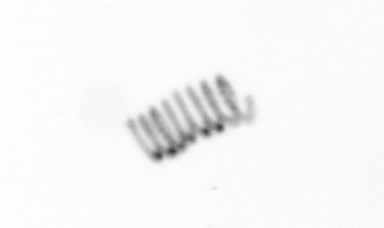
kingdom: Chromista
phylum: Ochrophyta
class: Bacillariophyceae
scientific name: Bacillariophyceae
